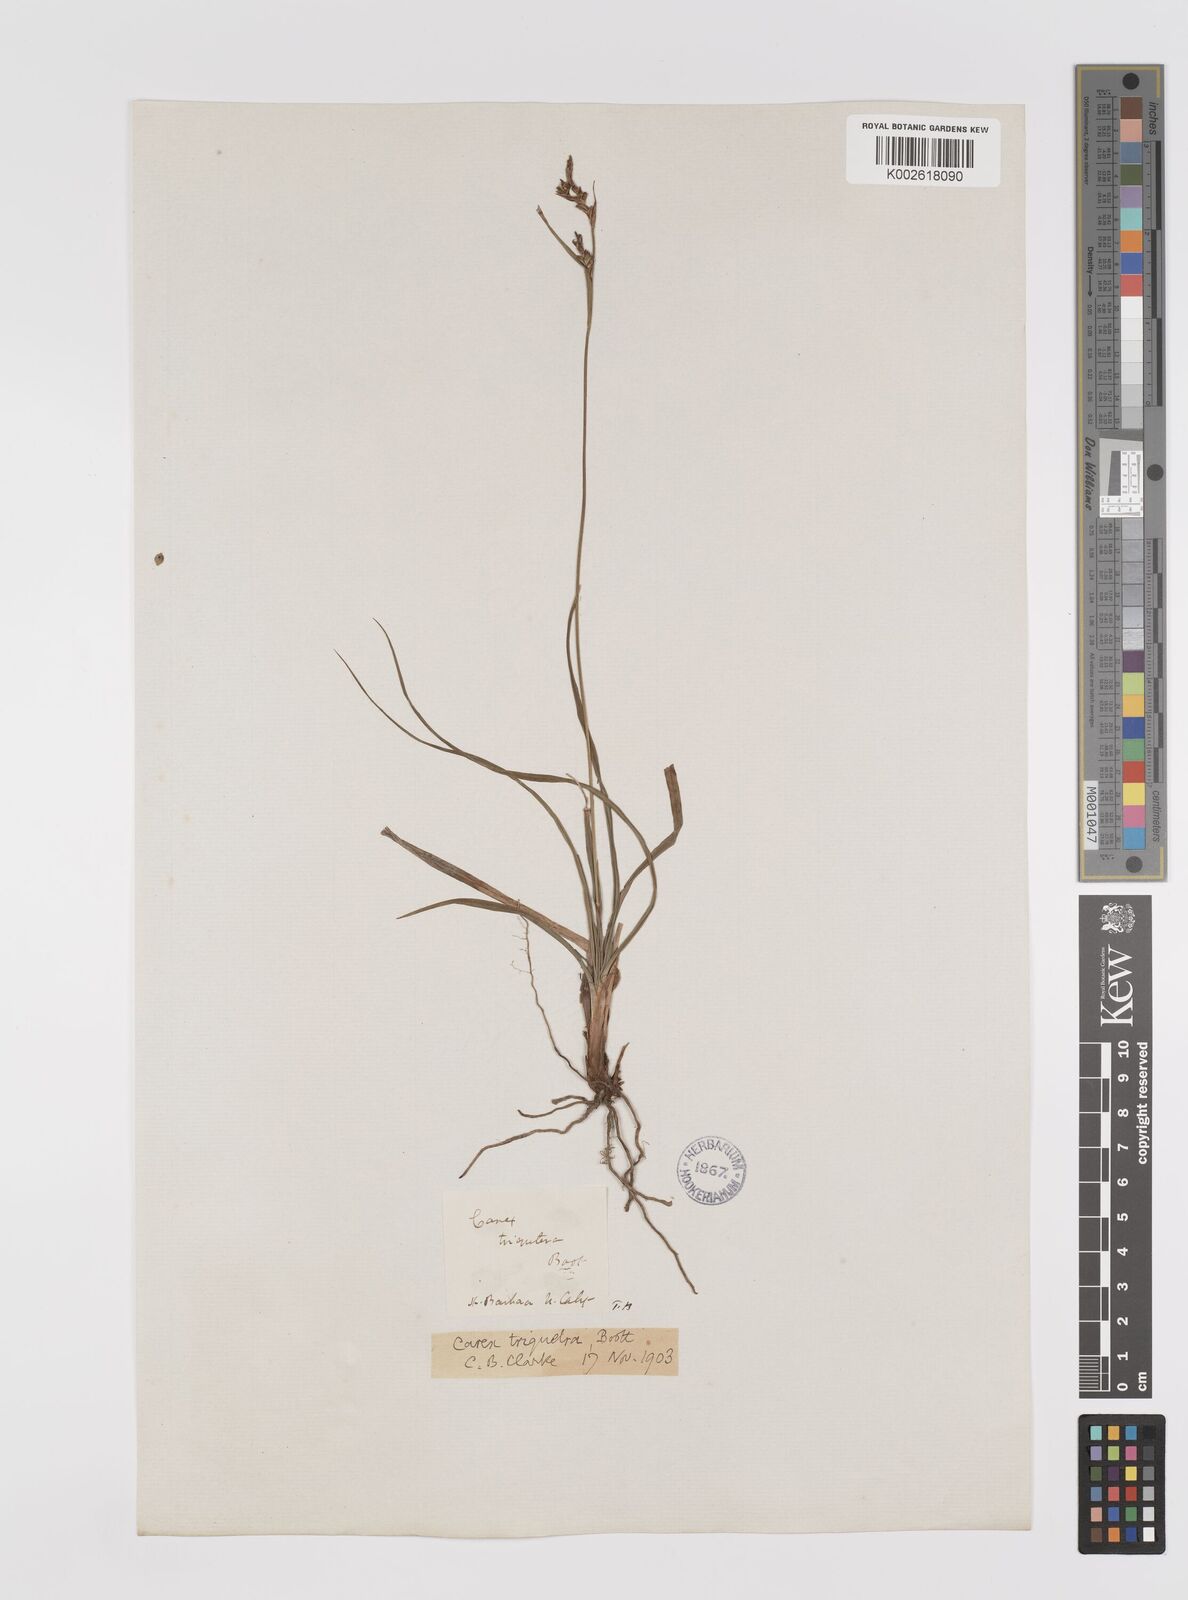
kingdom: Plantae
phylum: Tracheophyta
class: Liliopsida
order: Poales
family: Cyperaceae
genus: Carex
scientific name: Carex triquetra
